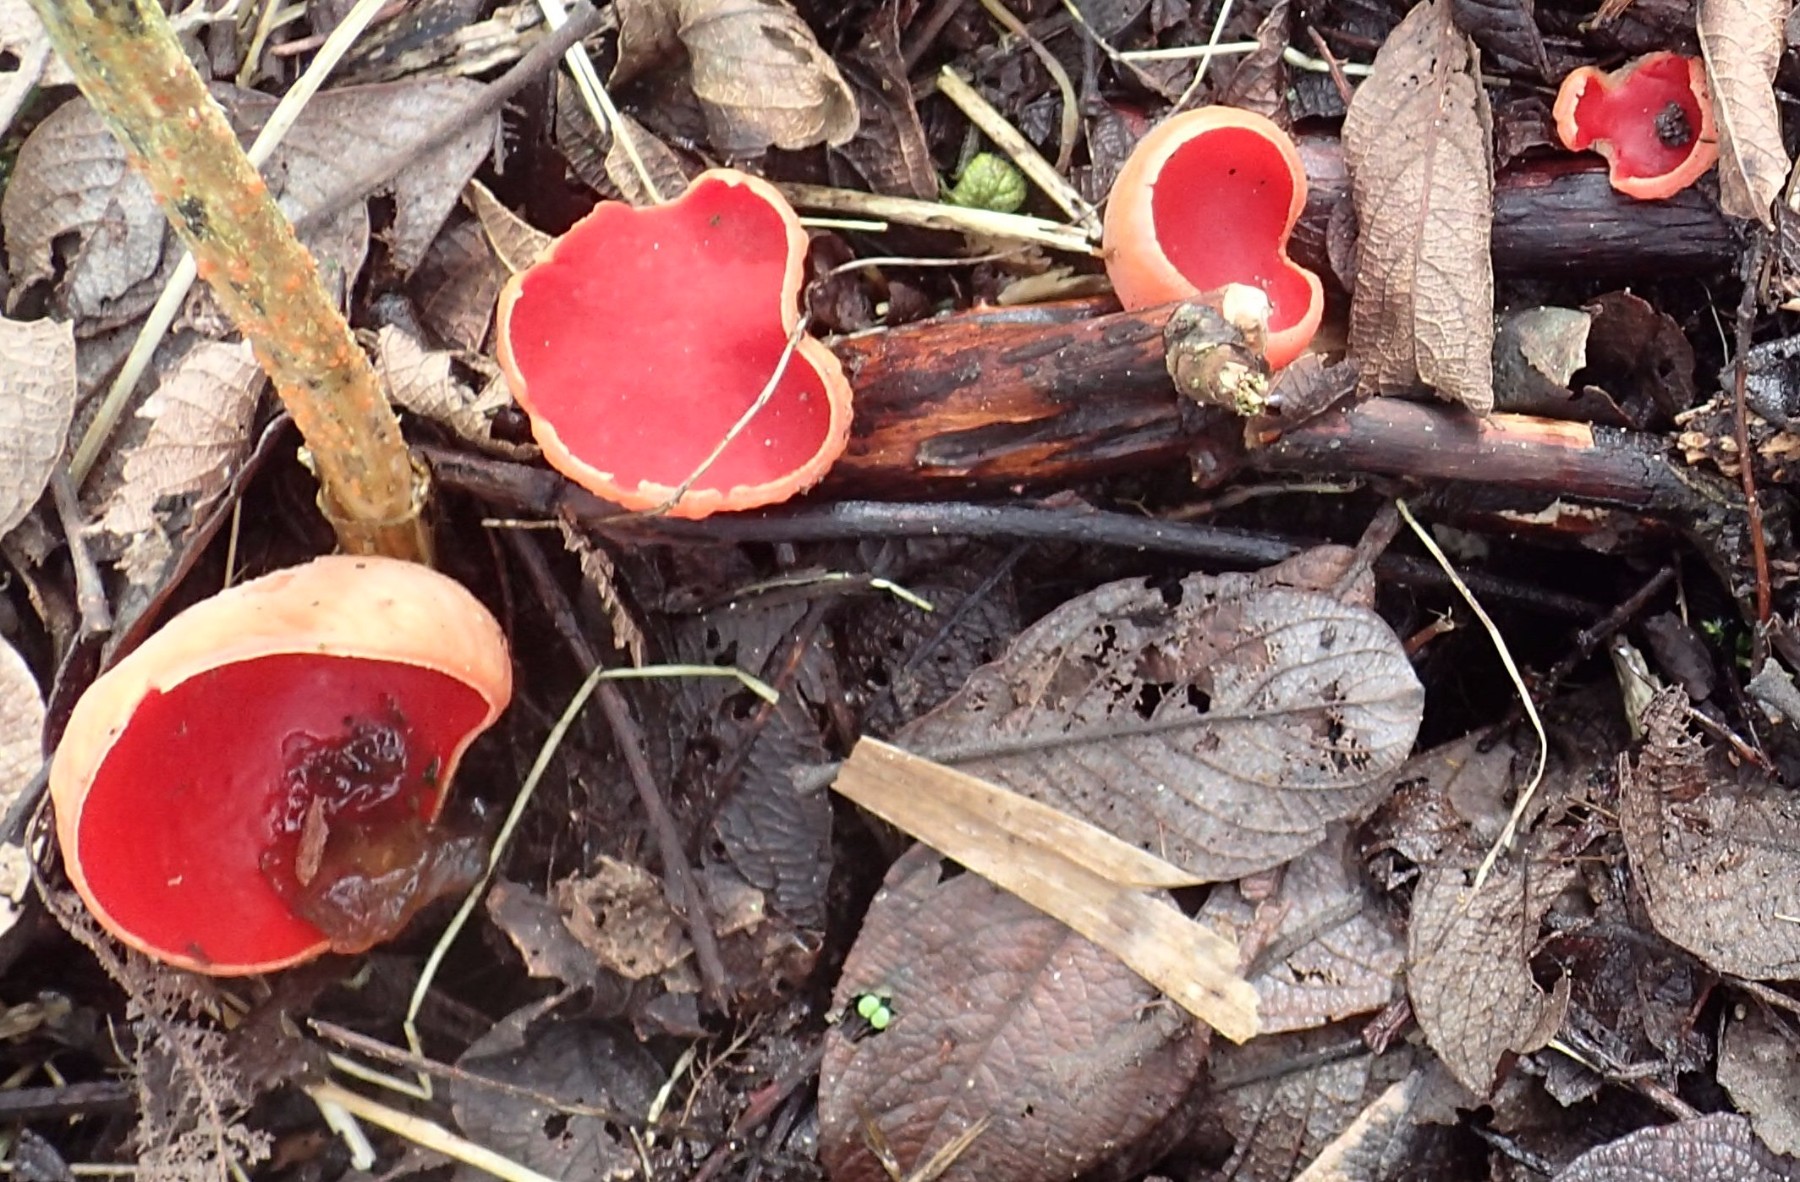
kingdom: Fungi
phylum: Ascomycota
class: Pezizomycetes
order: Pezizales
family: Sarcoscyphaceae
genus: Sarcoscypha
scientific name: Sarcoscypha austriaca
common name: krølhåret pragtbæger
